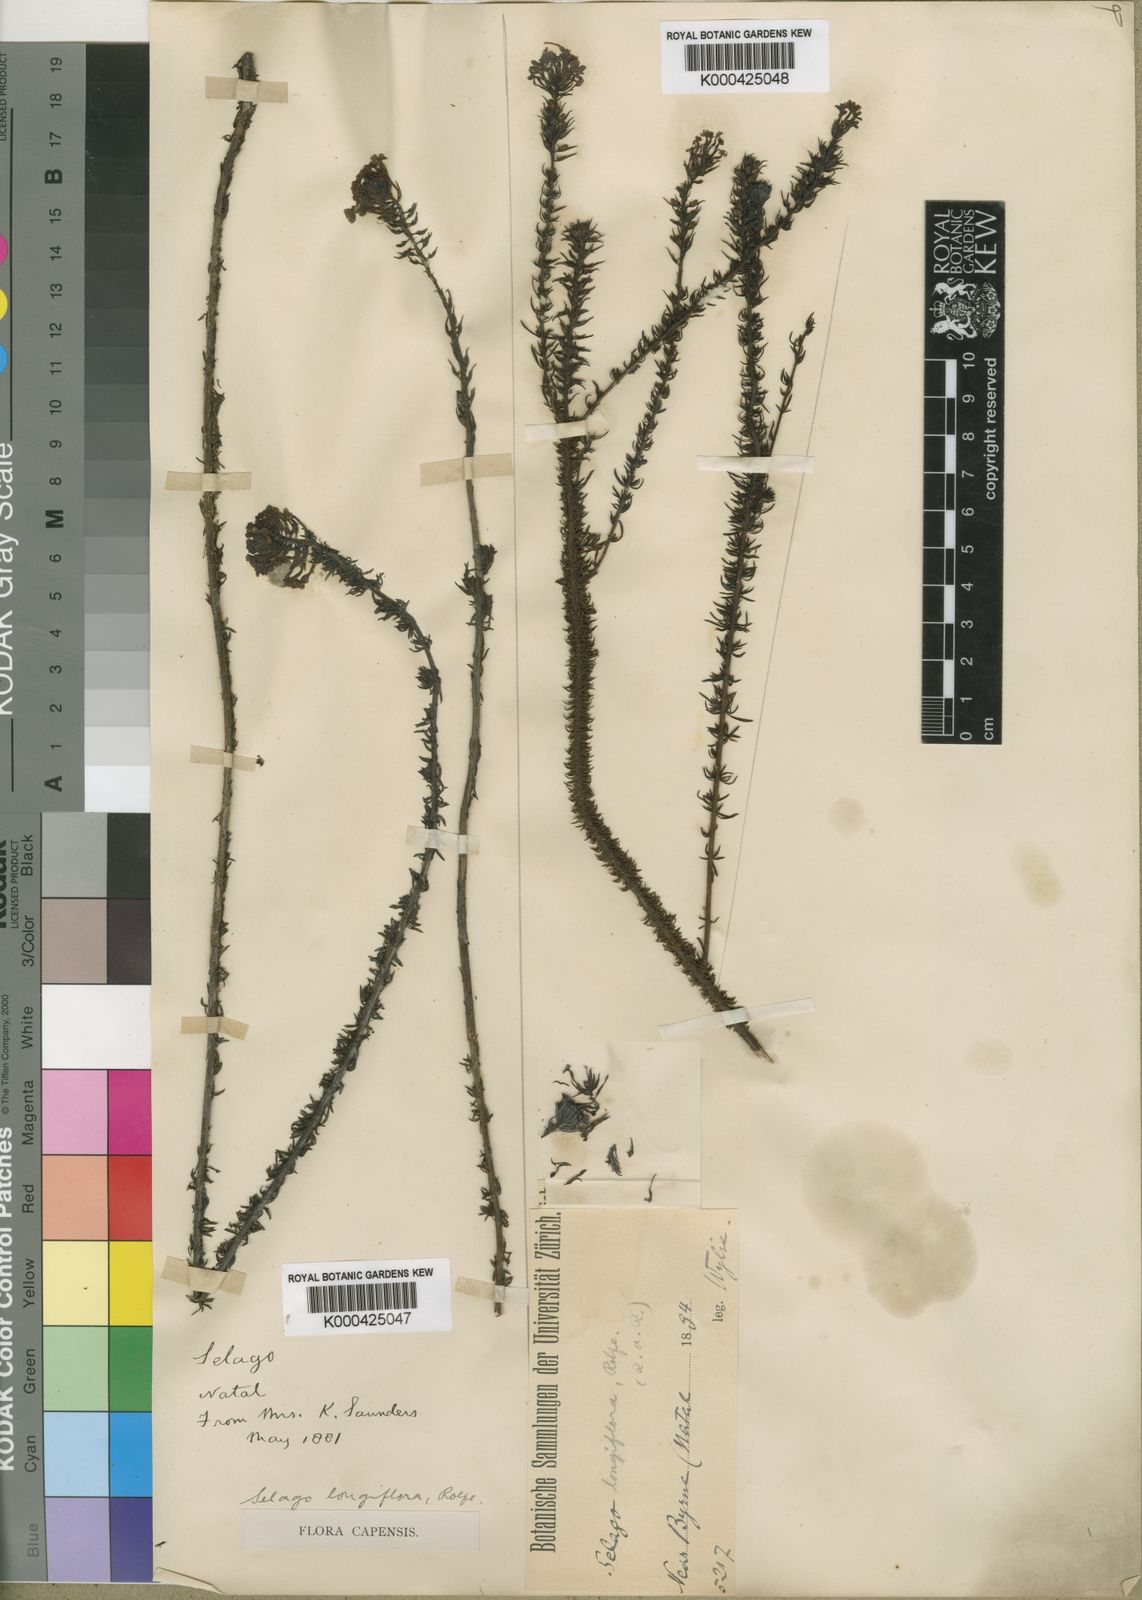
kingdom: Plantae
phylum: Tracheophyta
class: Magnoliopsida
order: Lamiales
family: Scrophulariaceae
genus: Selago
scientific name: Selago longiflora
